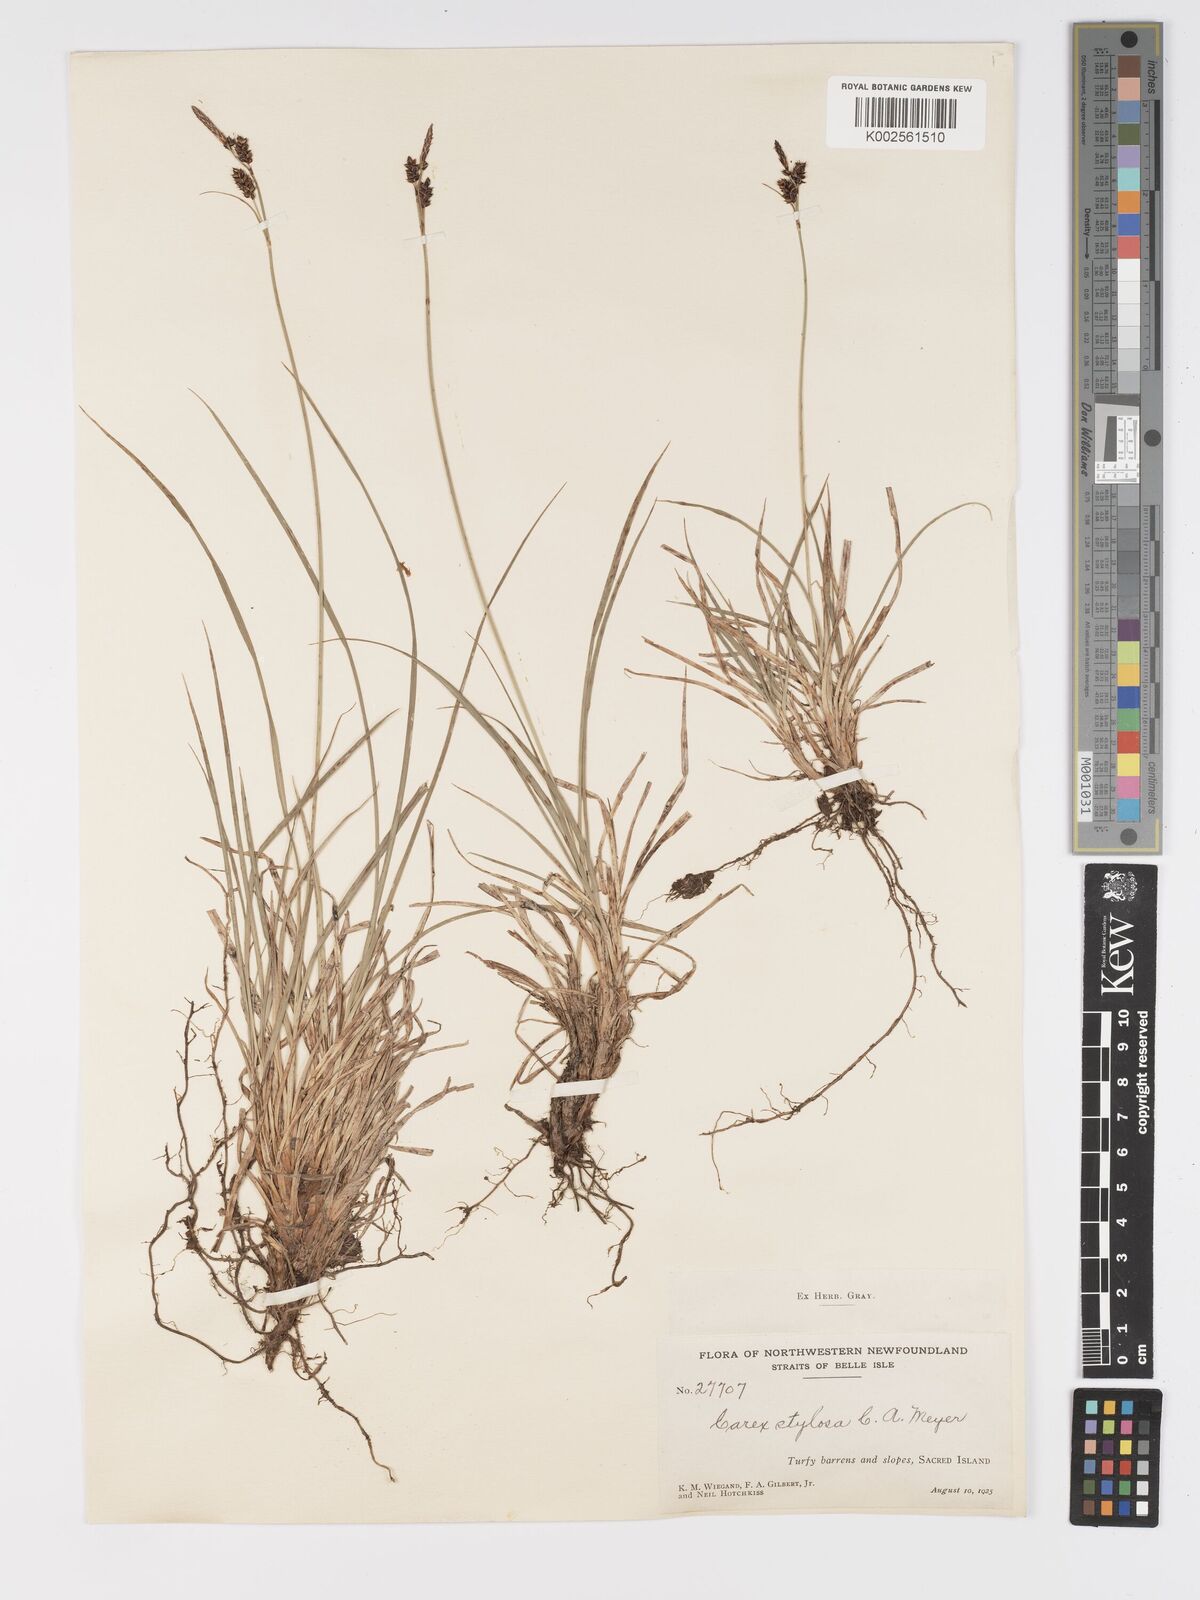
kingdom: Plantae
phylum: Tracheophyta
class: Liliopsida
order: Poales
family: Cyperaceae
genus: Carex
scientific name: Carex stylosa
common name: Long-styled sedge
